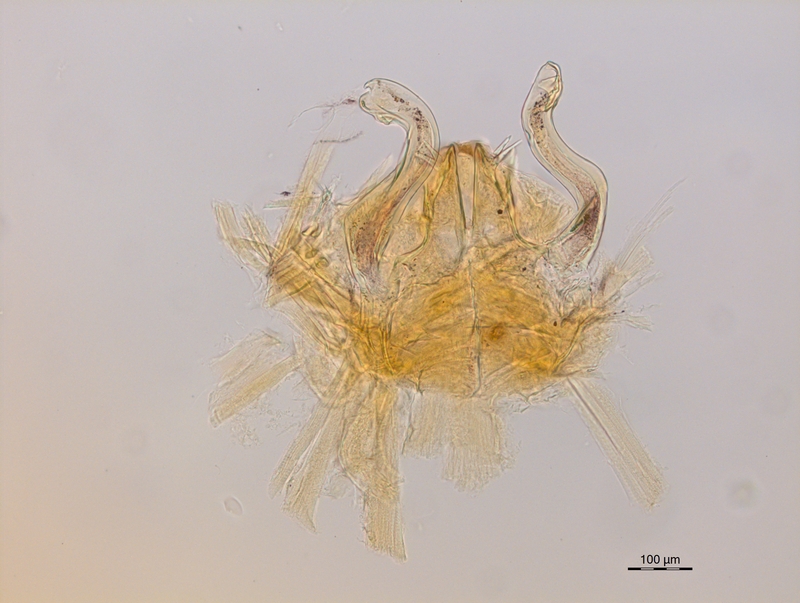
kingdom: Animalia
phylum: Arthropoda
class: Diplopoda
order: Chordeumatida
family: Craspedosomatidae
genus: Ochogona
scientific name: Ochogona brentana
